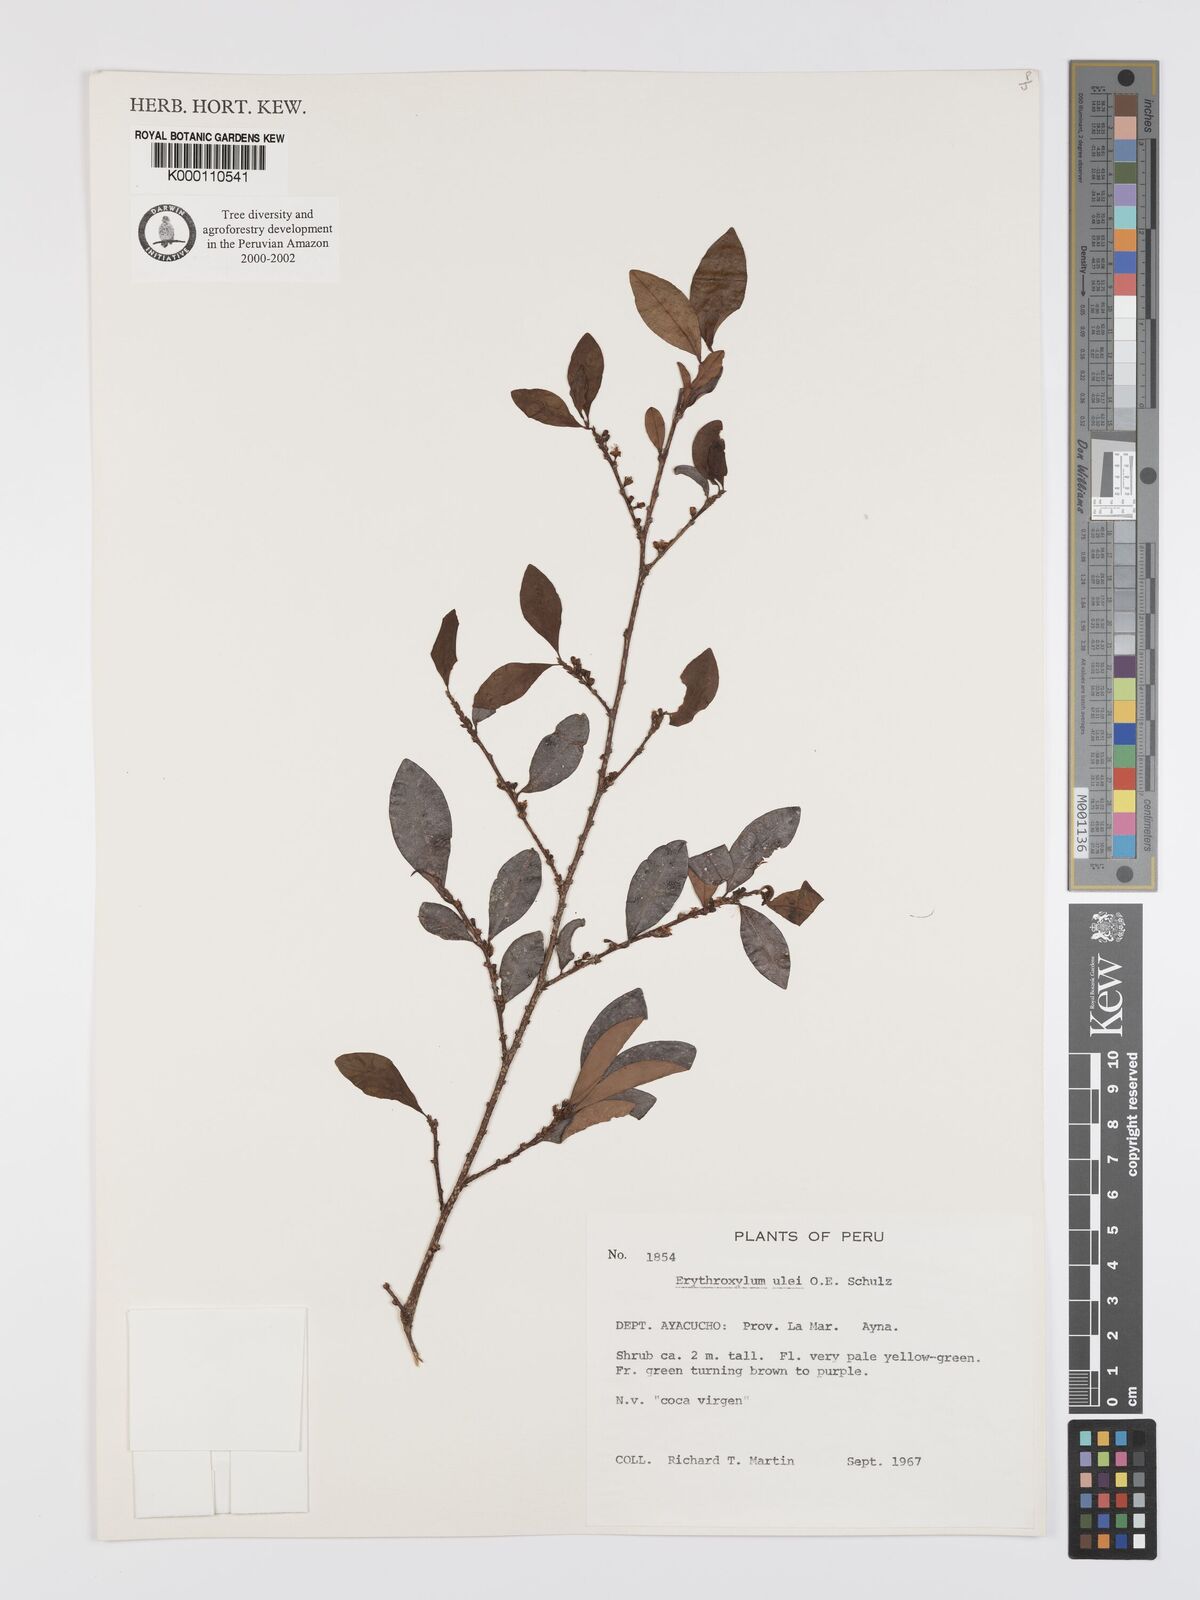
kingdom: Plantae
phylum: Tracheophyta
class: Magnoliopsida
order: Malpighiales
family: Erythroxylaceae
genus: Erythroxylum
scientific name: Erythroxylum ulei
